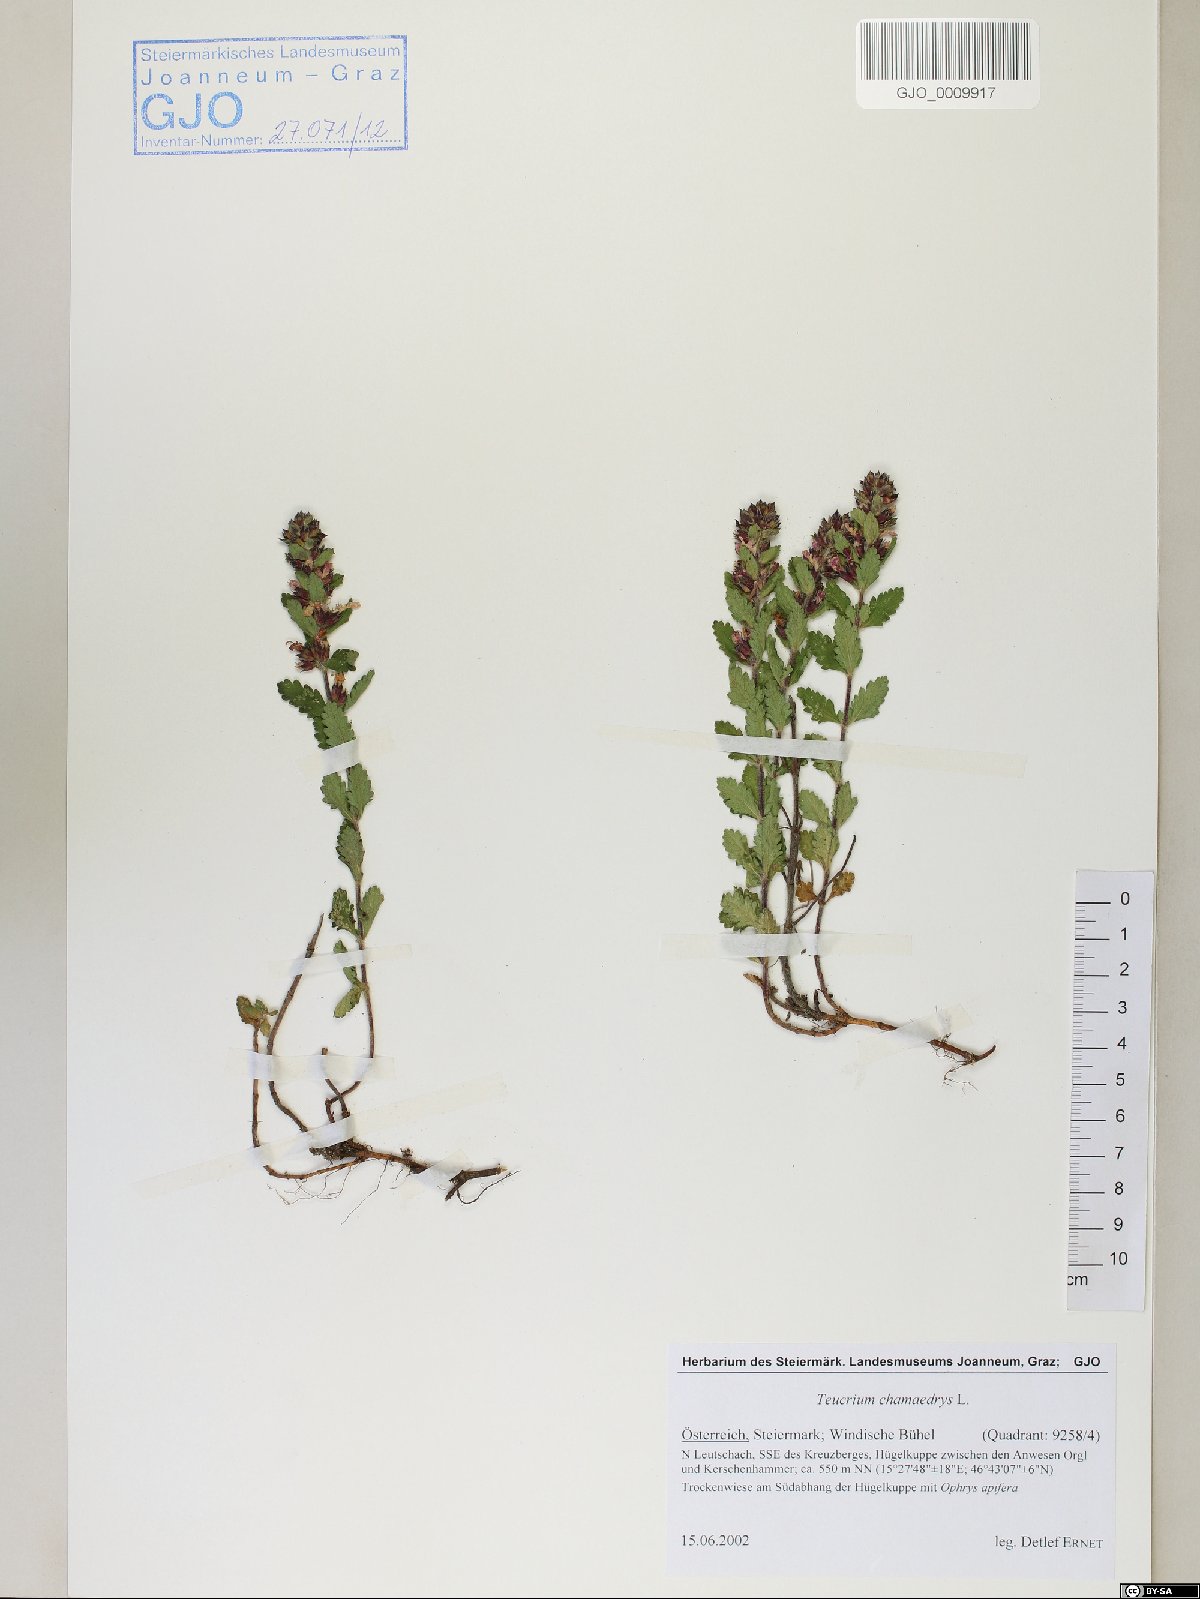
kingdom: Plantae
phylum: Tracheophyta
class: Magnoliopsida
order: Lamiales
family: Lamiaceae
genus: Teucrium
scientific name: Teucrium chamaedrys
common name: Wall germander
